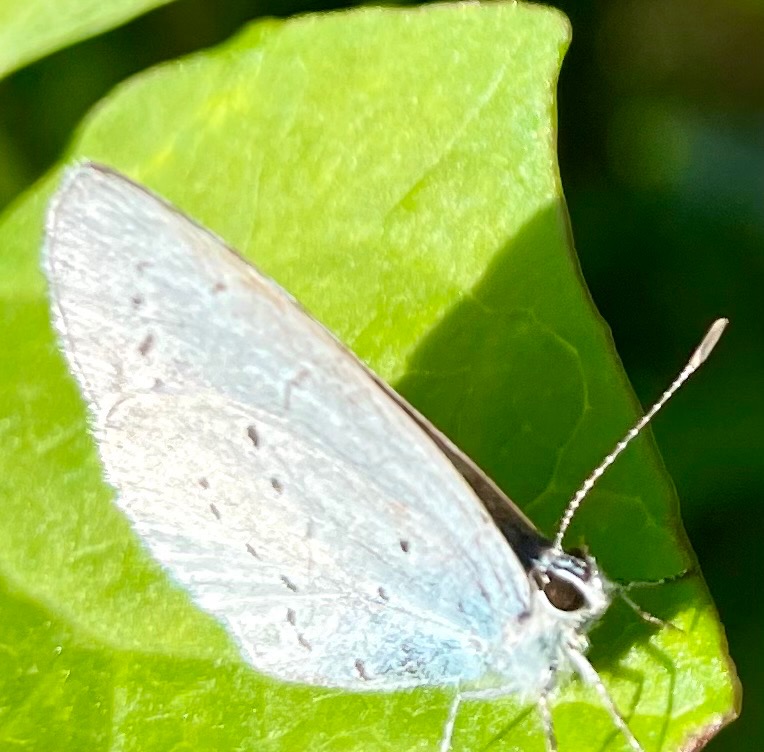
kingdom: Animalia
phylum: Arthropoda
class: Insecta
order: Lepidoptera
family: Lycaenidae
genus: Celastrina
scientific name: Celastrina argiolus
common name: Skovblåfugl
